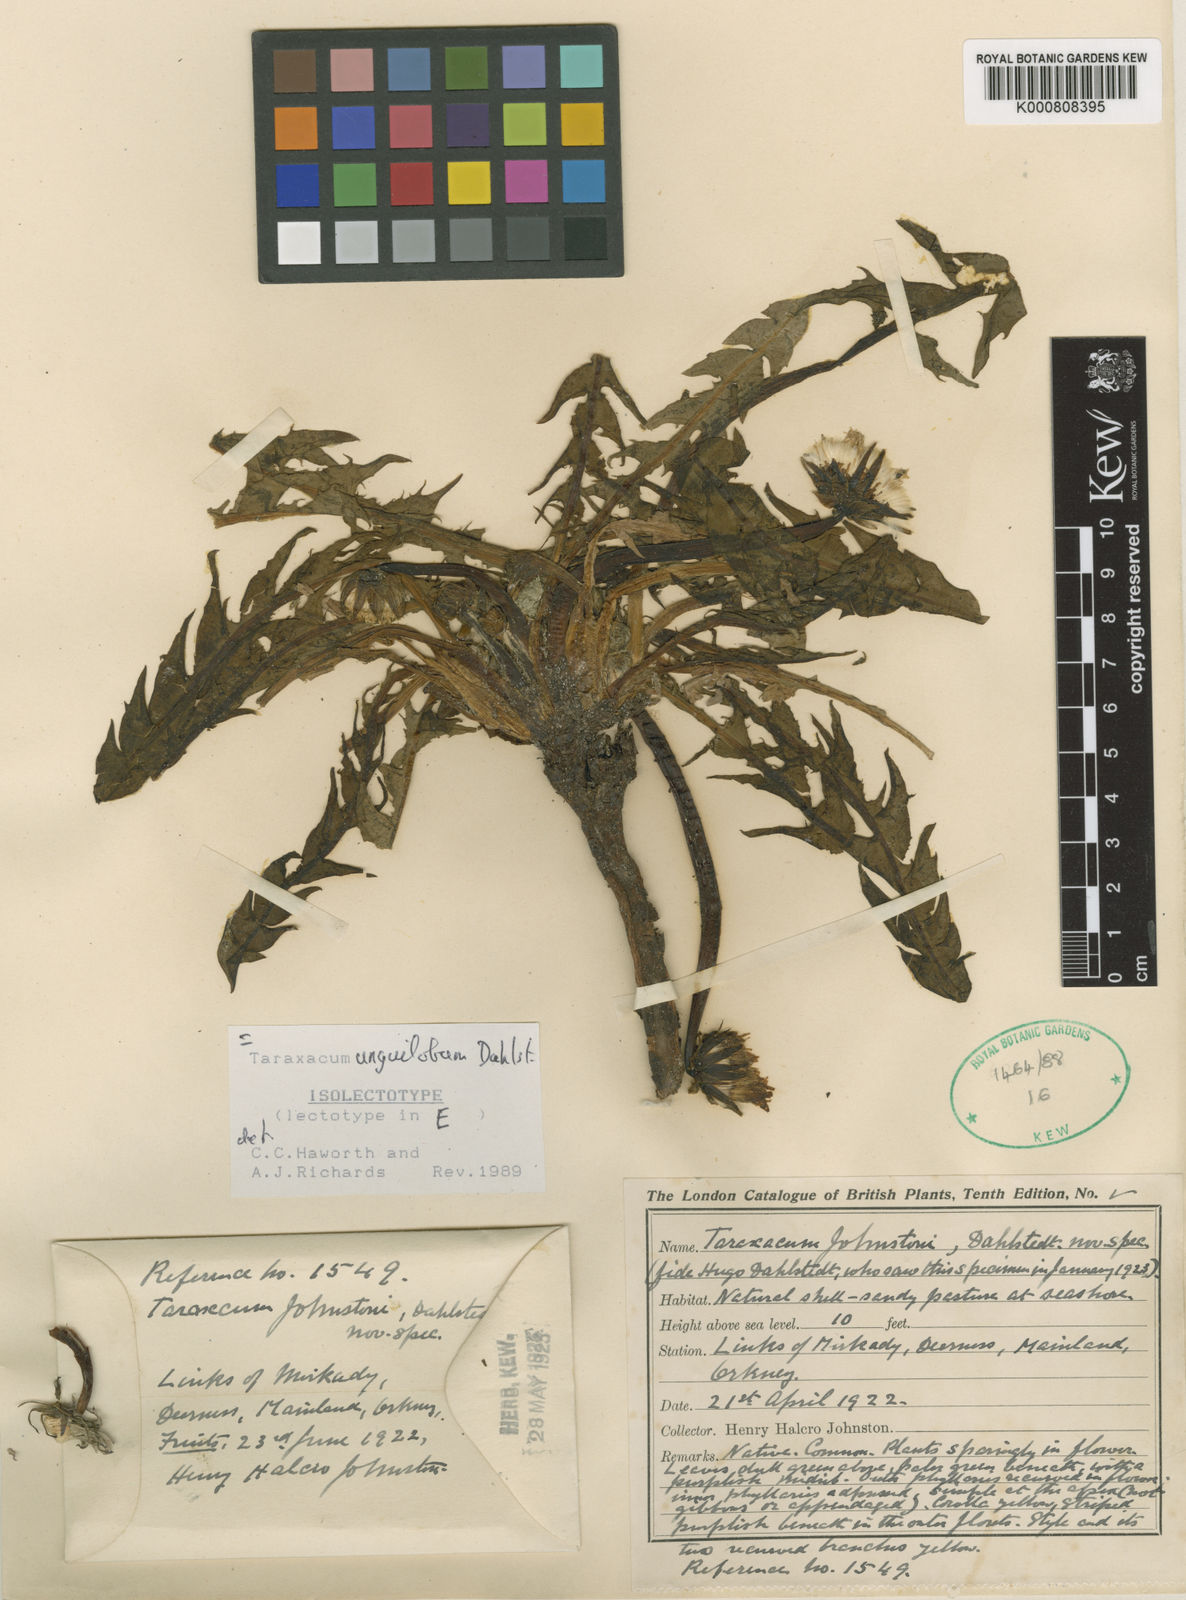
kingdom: Plantae
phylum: Tracheophyta
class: Magnoliopsida
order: Asterales
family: Asteraceae
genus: Taraxacum
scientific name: Taraxacum unguilobum
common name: Claw-lobed dandelion
